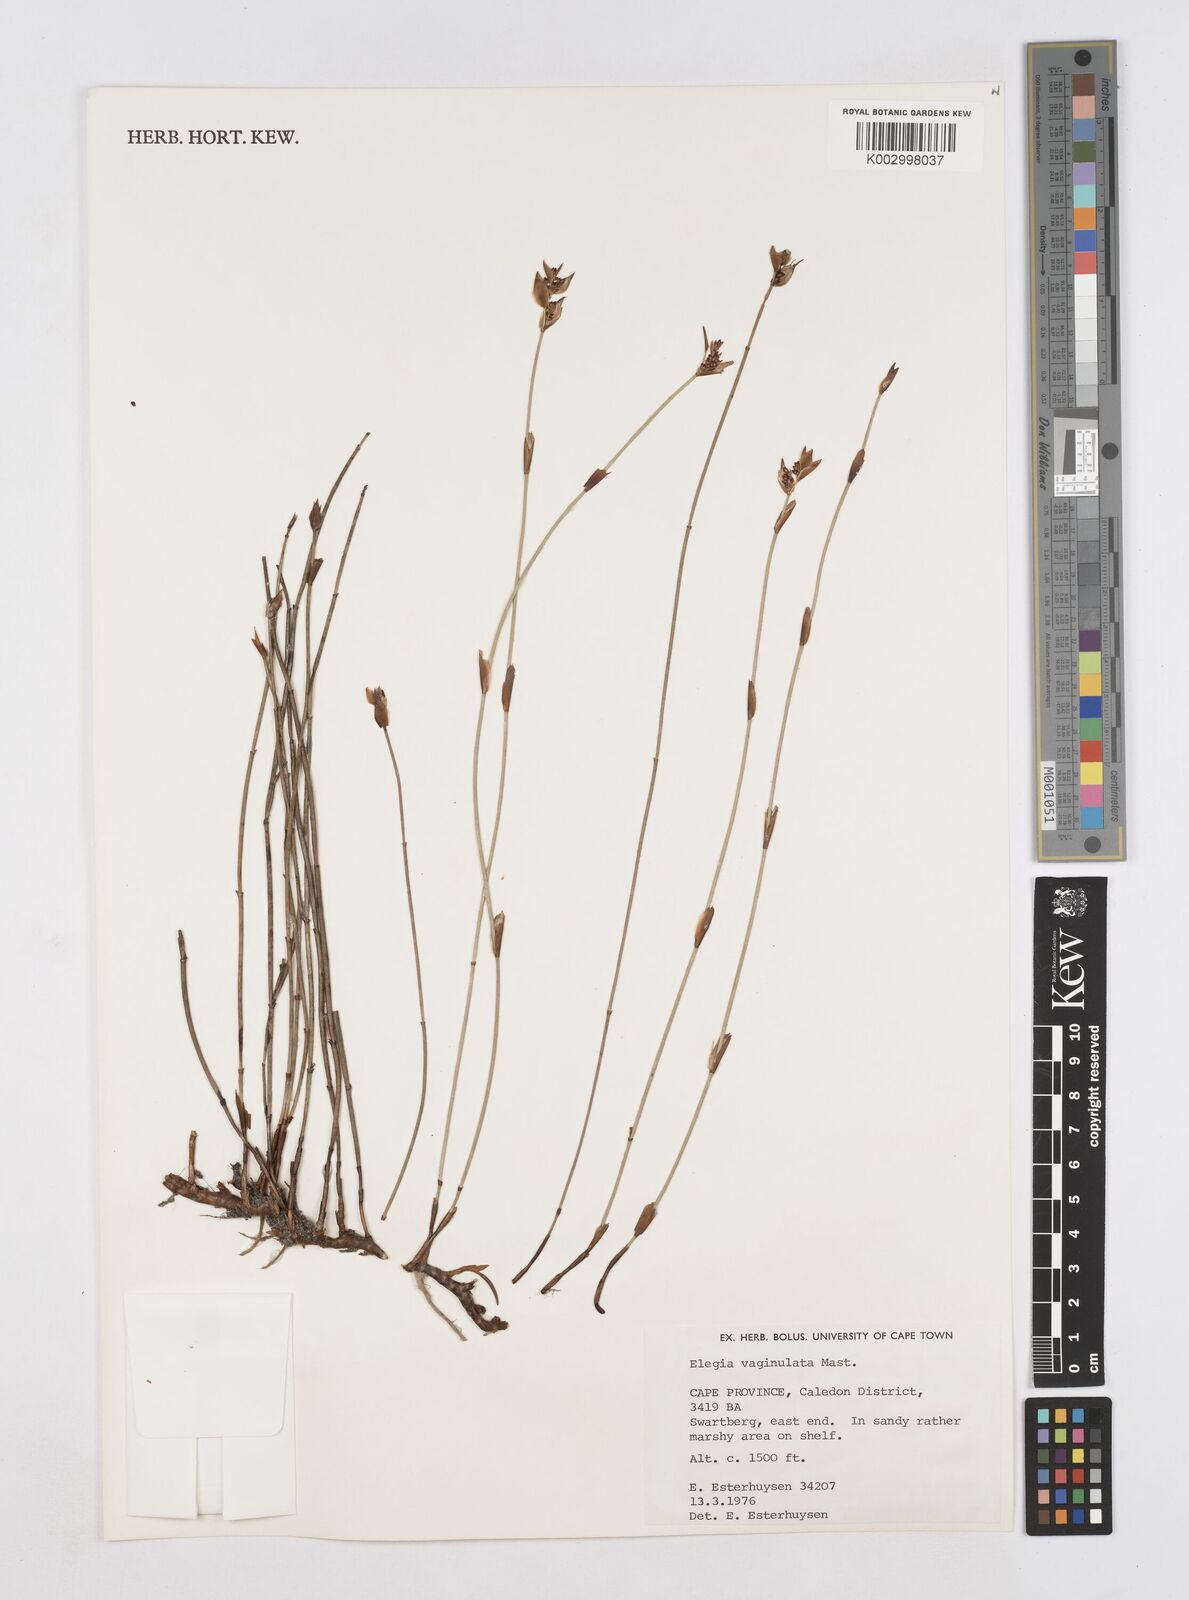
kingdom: Plantae
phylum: Tracheophyta
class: Liliopsida
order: Poales
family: Restionaceae
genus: Elegia
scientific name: Elegia vaginulata
